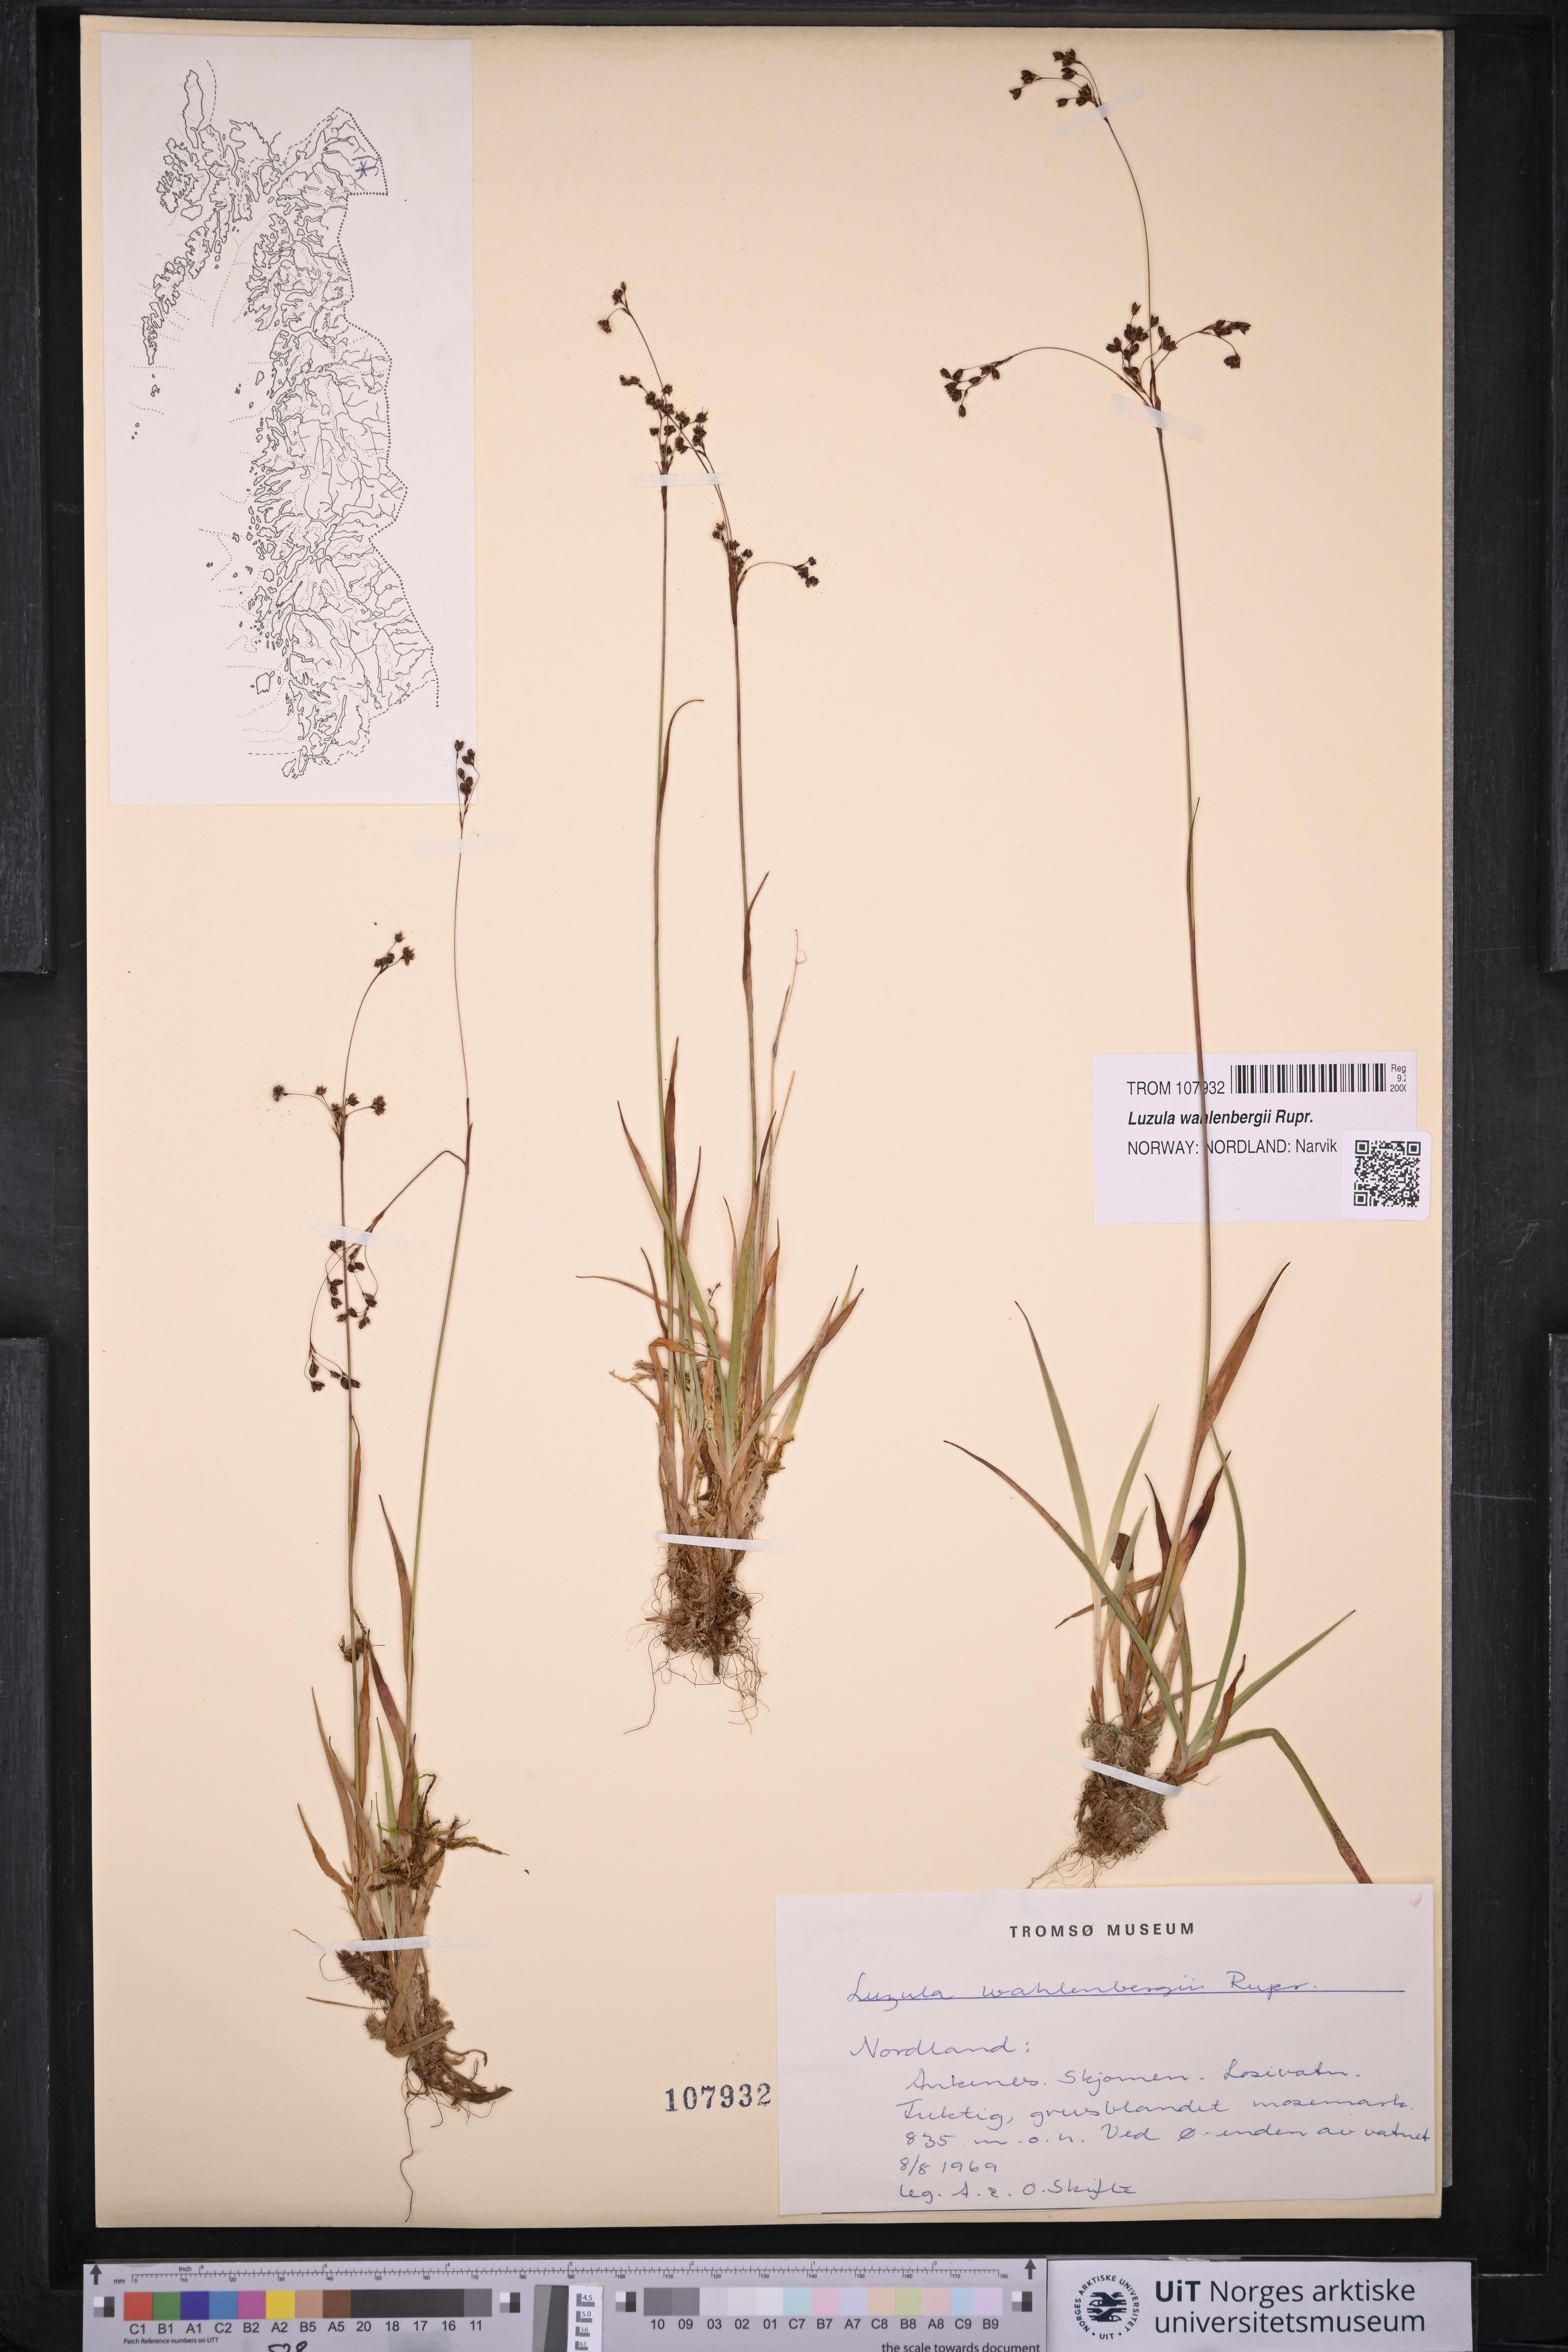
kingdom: Plantae
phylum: Tracheophyta
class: Liliopsida
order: Poales
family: Juncaceae
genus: Luzula
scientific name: Luzula wahlenbergii
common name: Wahlenberg's wood-rush
